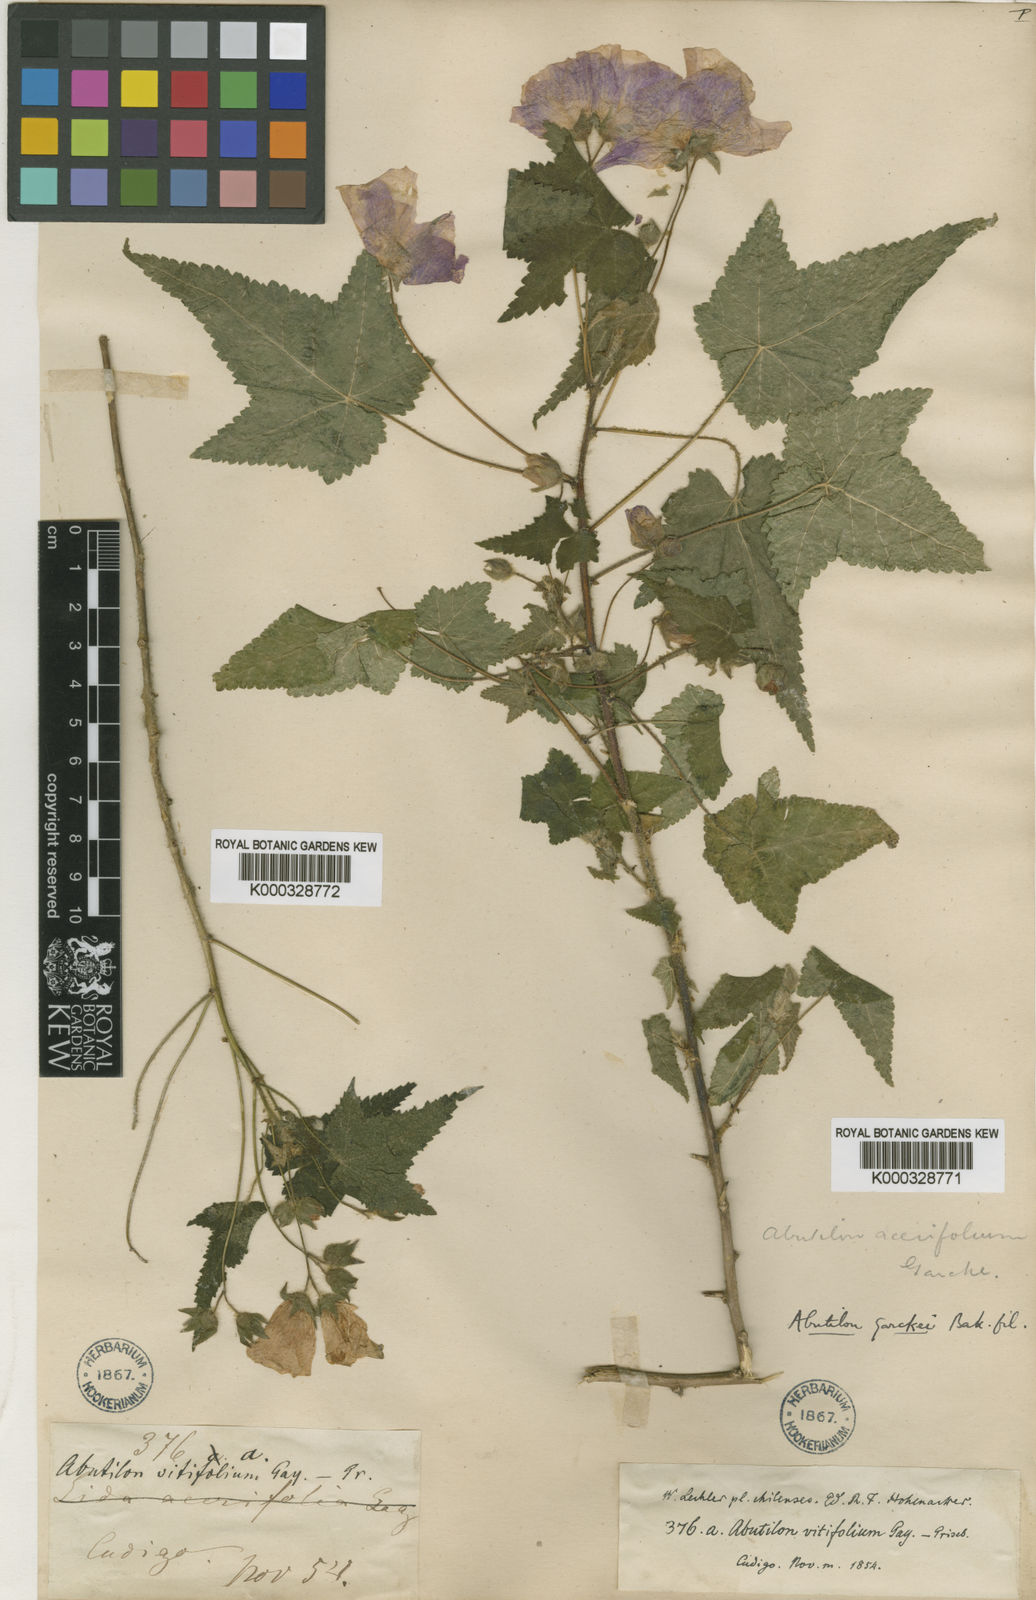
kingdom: Plantae
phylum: Tracheophyta
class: Magnoliopsida
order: Malvales
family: Malvaceae
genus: Corynabutilon
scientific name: Corynabutilon
